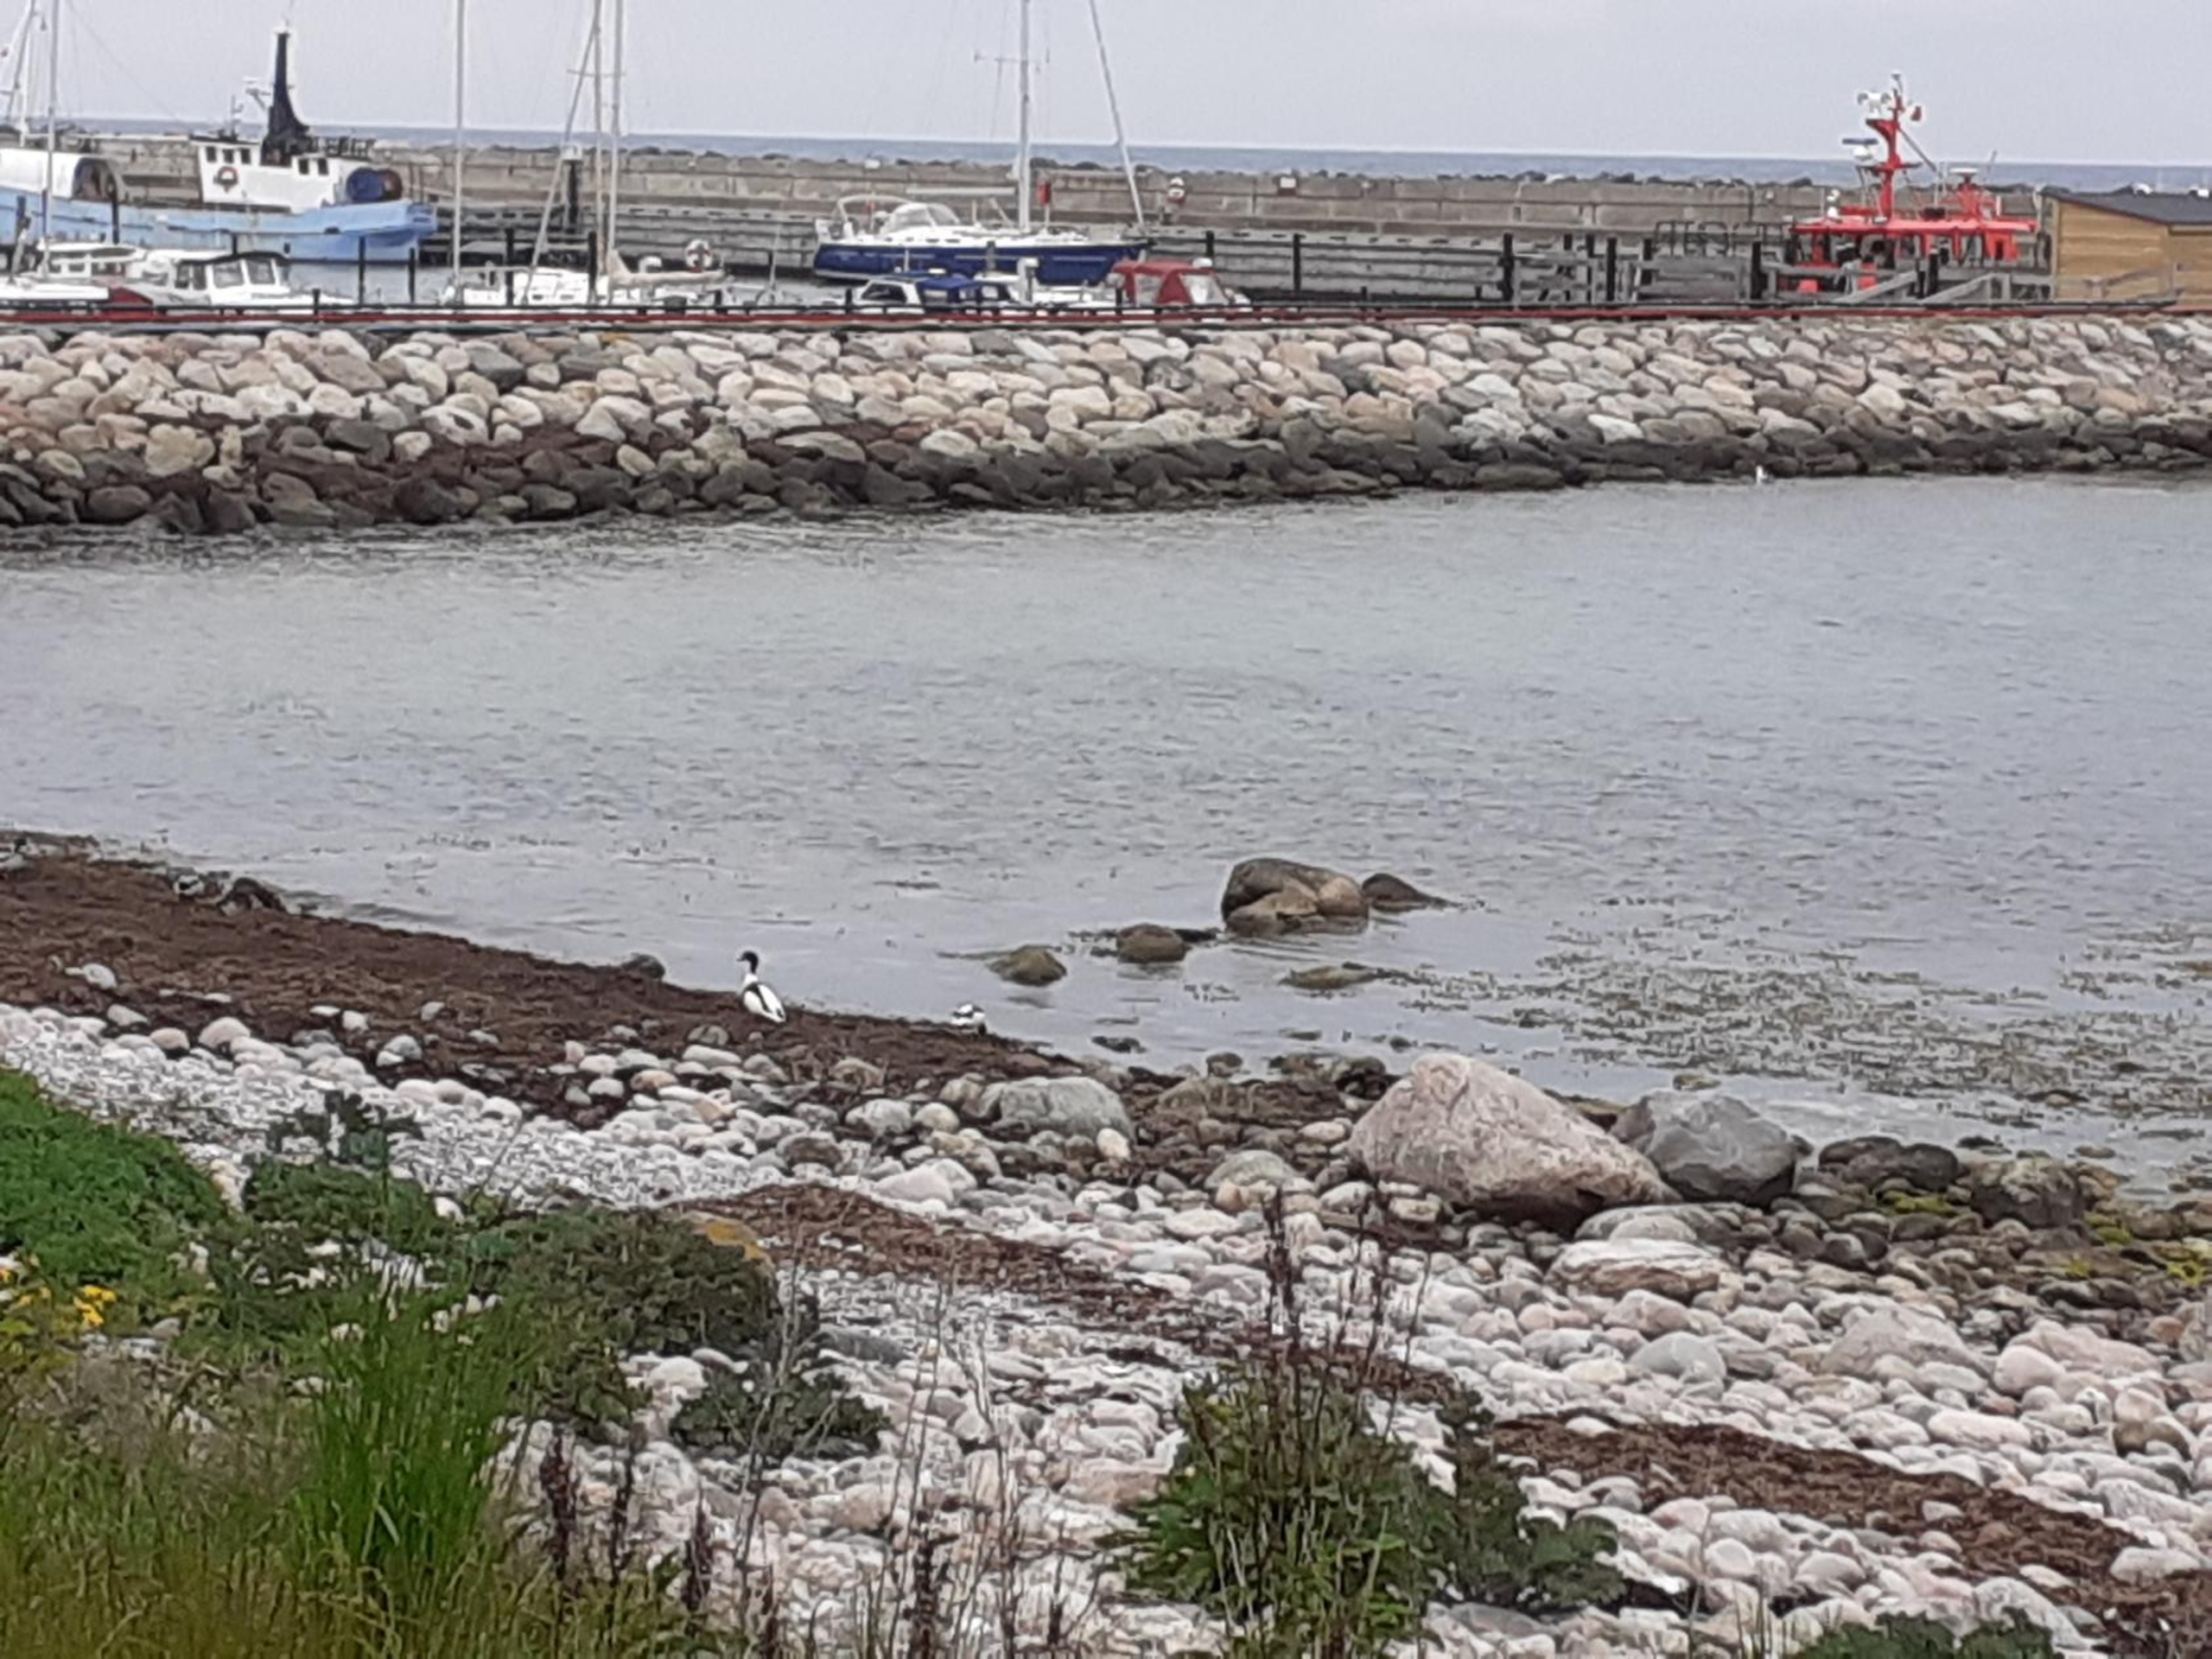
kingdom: Animalia
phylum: Chordata
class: Aves
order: Anseriformes
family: Anatidae
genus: Tadorna
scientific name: Tadorna tadorna
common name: Gravand
